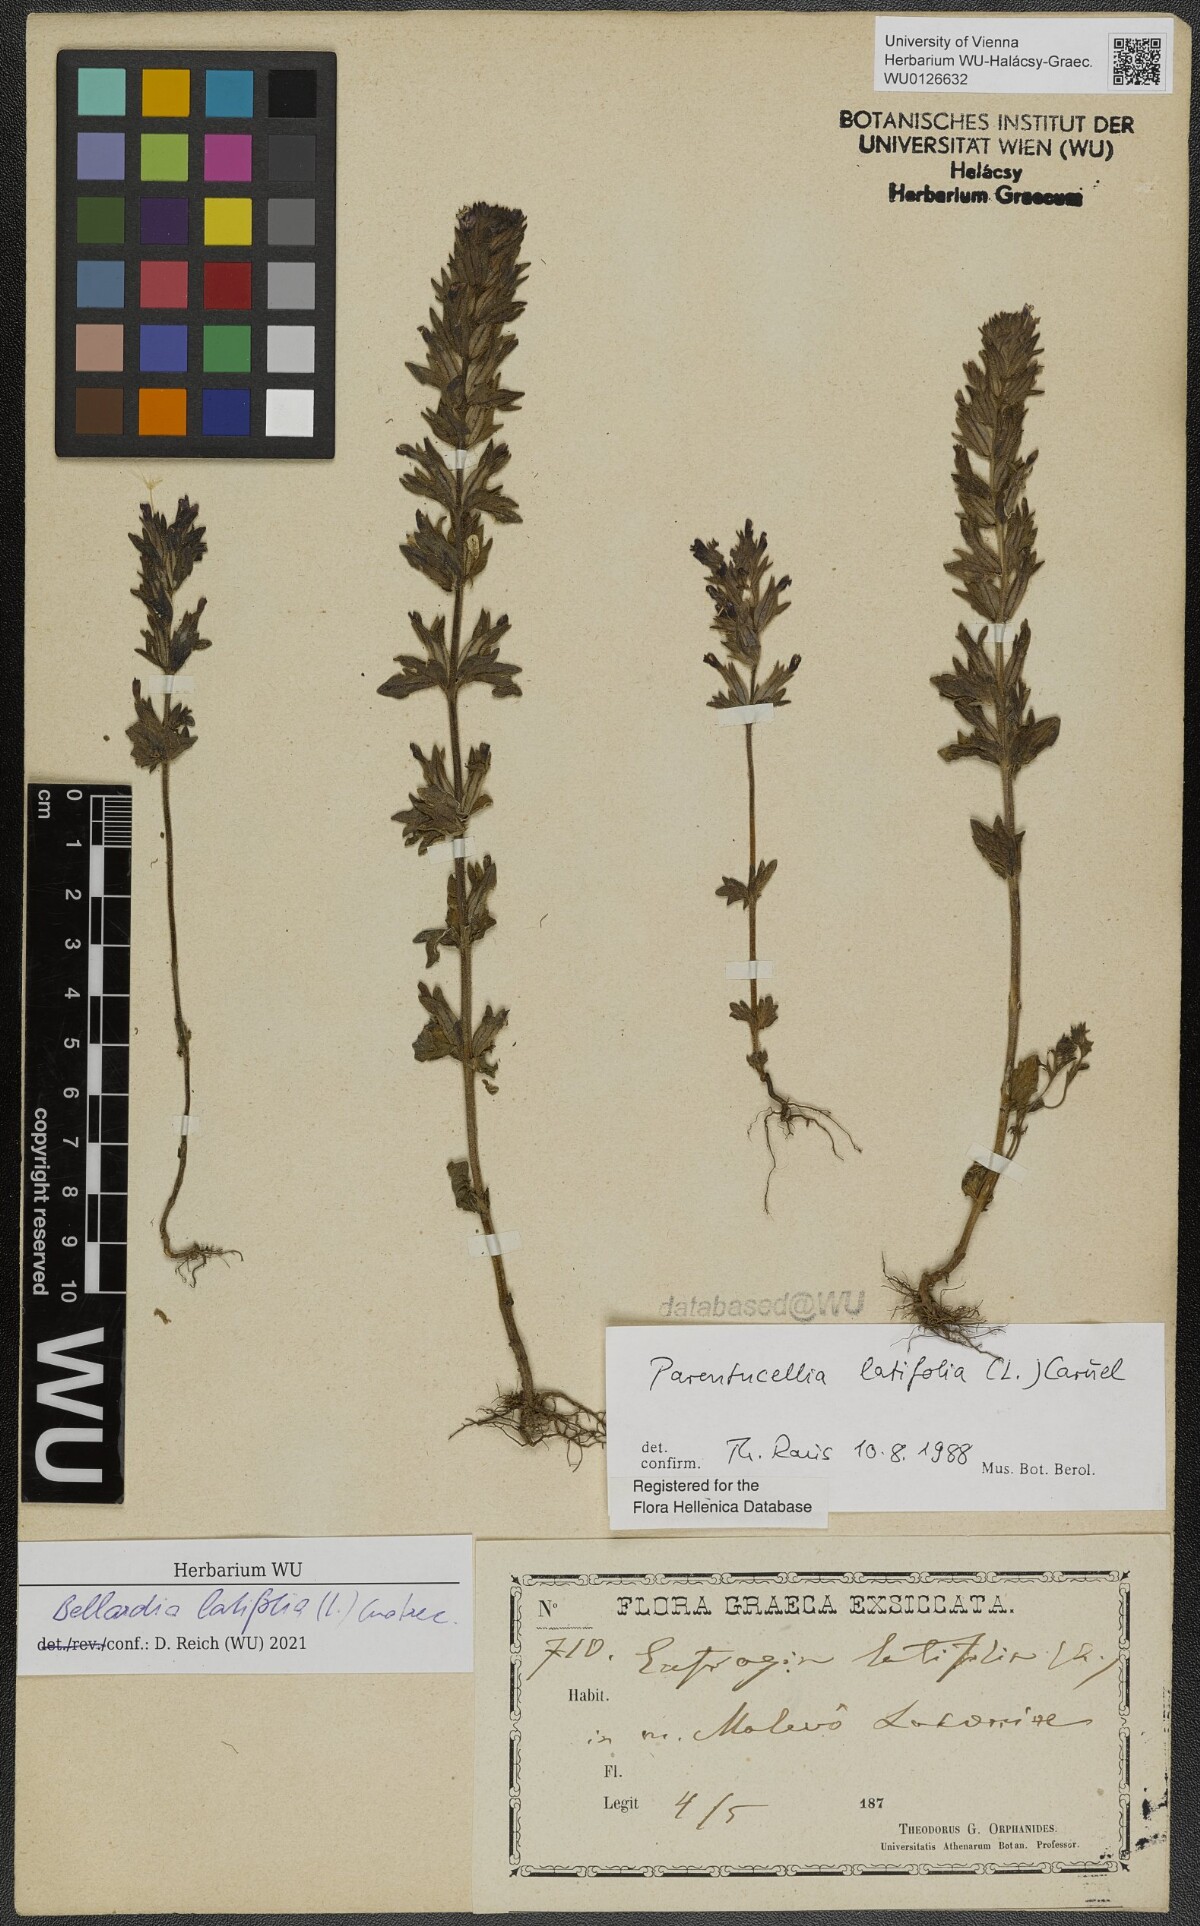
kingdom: Plantae
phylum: Tracheophyta
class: Magnoliopsida
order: Lamiales
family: Orobanchaceae
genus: Parentucellia
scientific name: Parentucellia latifolia
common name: Broadleaf glandweed
